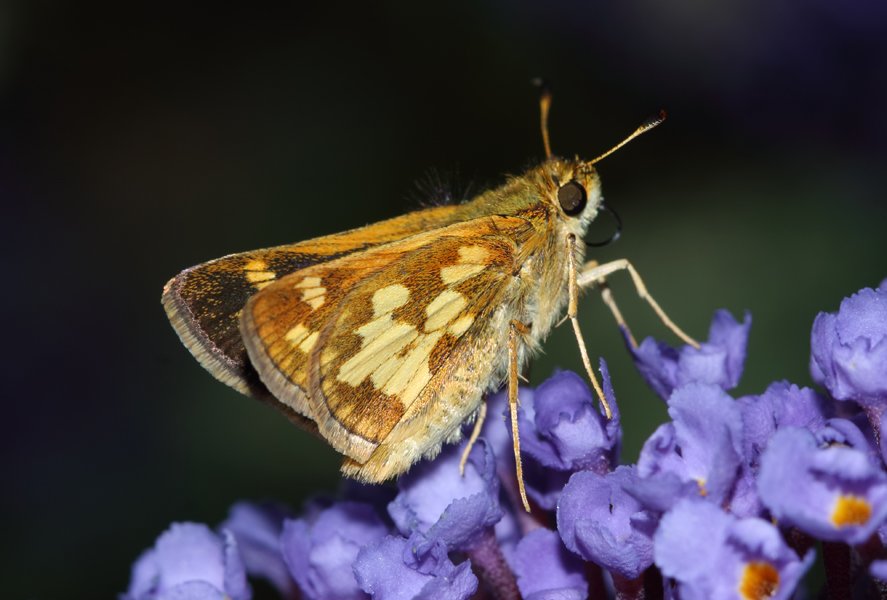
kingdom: Animalia
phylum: Arthropoda
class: Insecta
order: Lepidoptera
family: Hesperiidae
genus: Polites
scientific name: Polites coras
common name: Peck's Skipper
